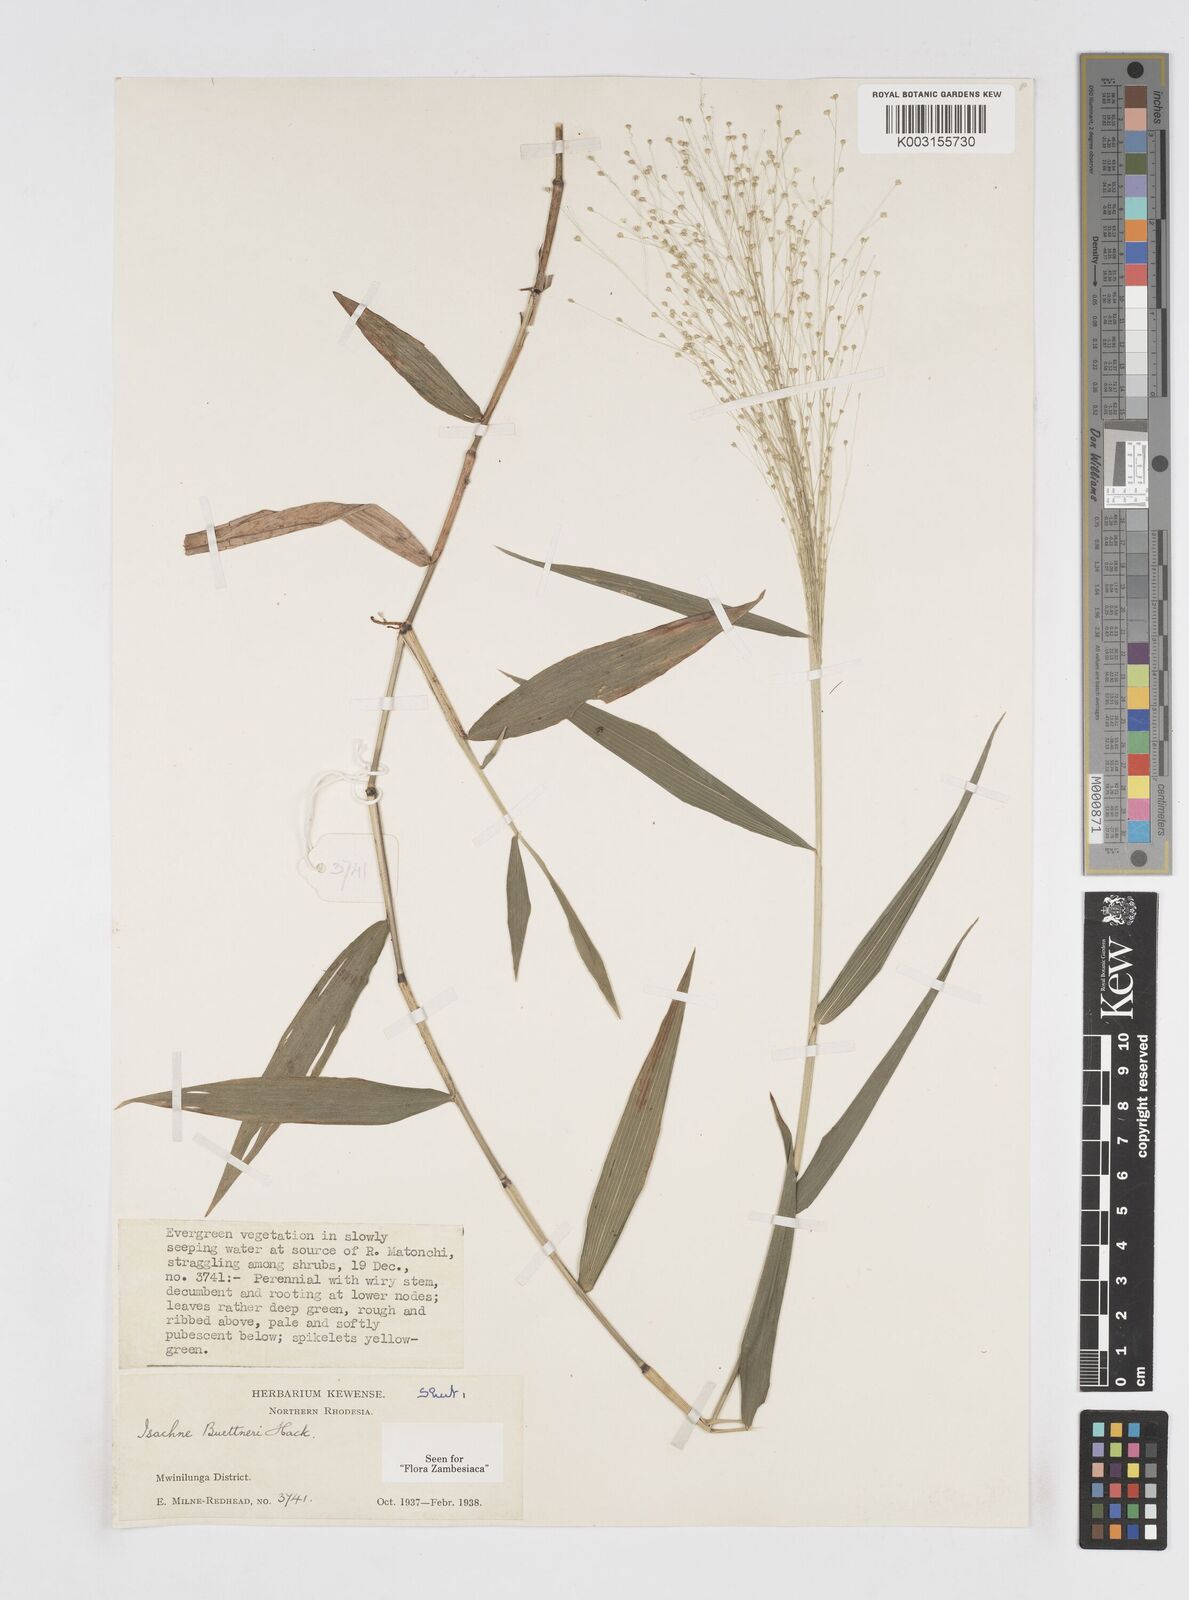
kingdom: Plantae
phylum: Tracheophyta
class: Liliopsida
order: Poales
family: Poaceae
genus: Isachne
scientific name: Isachne albens
